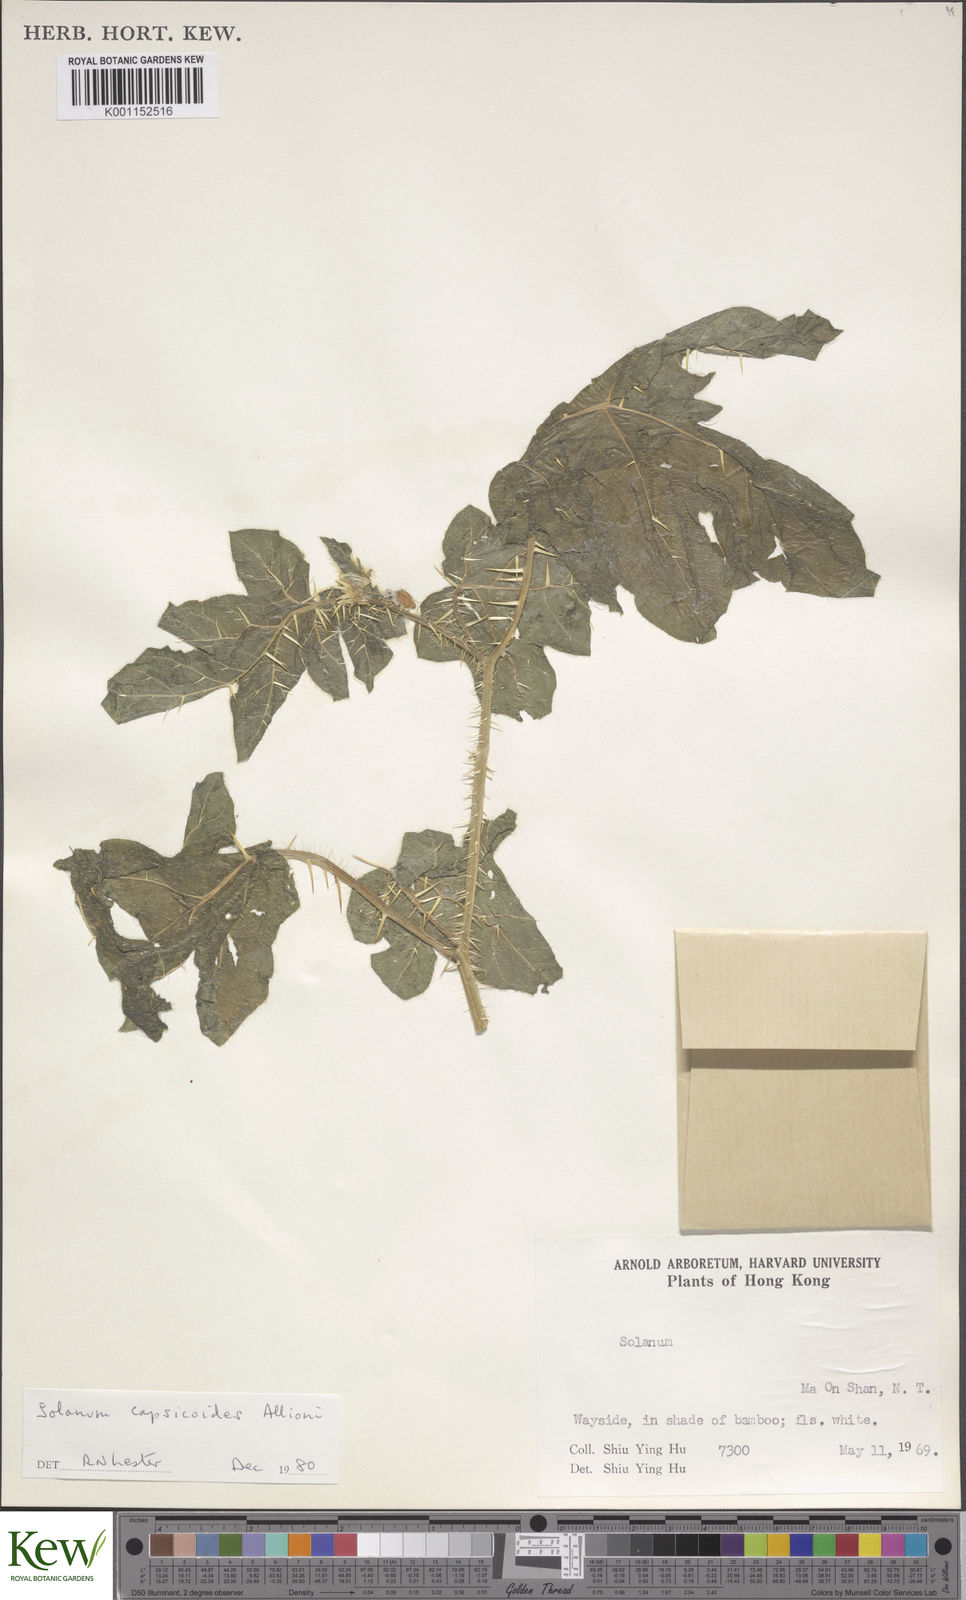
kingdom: Plantae
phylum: Tracheophyta
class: Magnoliopsida
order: Solanales
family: Solanaceae
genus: Solanum
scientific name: Solanum capsicoides
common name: Cockroach berry
